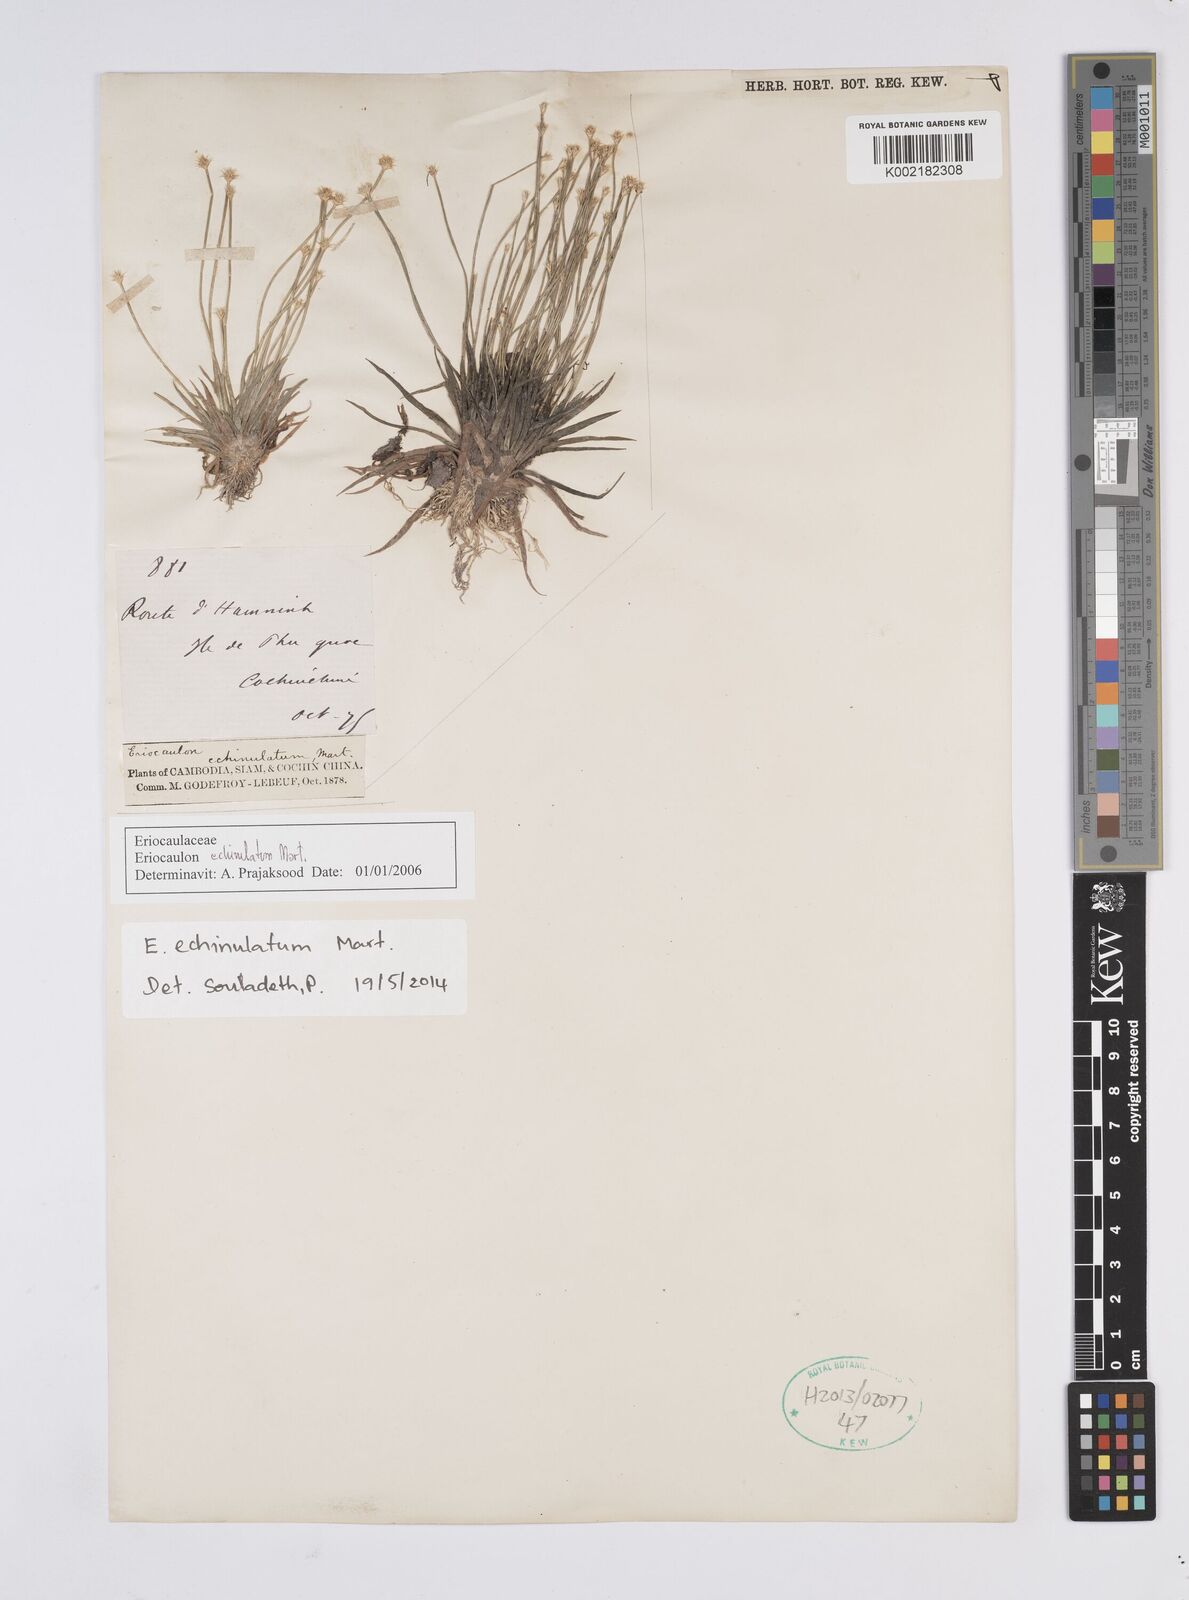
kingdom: Plantae
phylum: Tracheophyta
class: Liliopsida
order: Poales
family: Eriocaulaceae
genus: Eriocaulon
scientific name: Eriocaulon echinulatum
